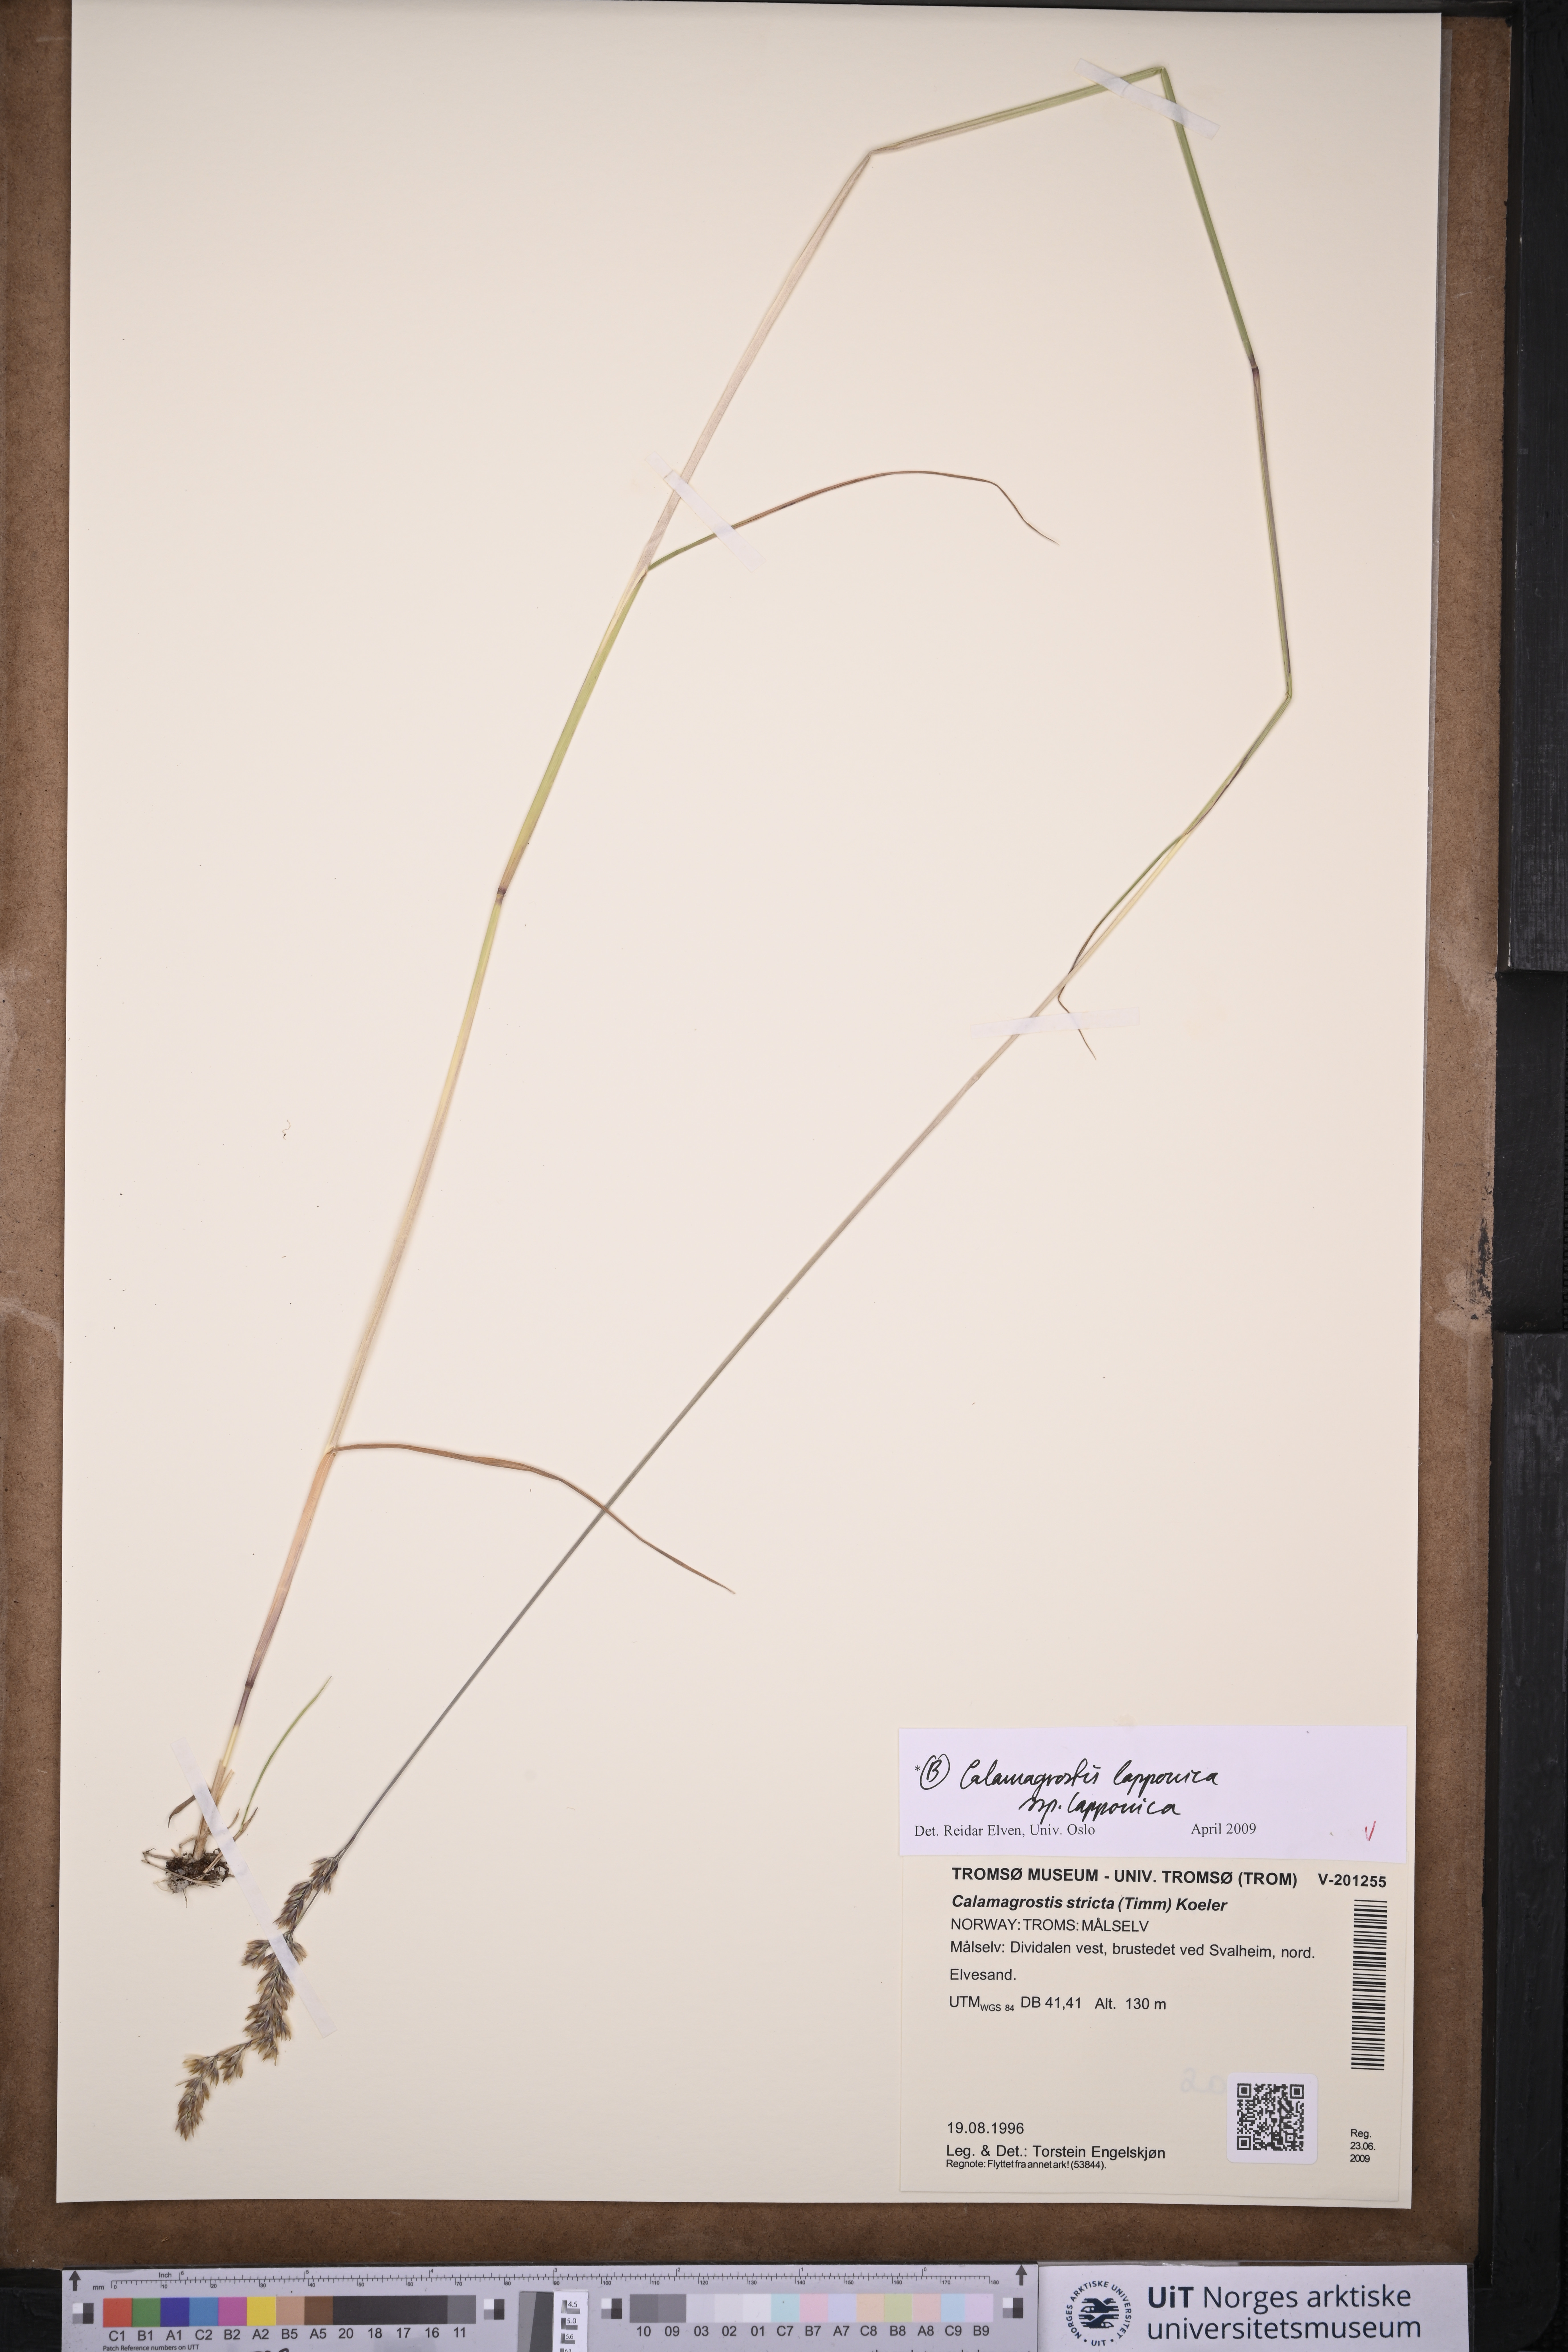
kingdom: Plantae
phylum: Tracheophyta
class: Liliopsida
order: Poales
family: Poaceae
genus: Calamagrostis
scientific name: Calamagrostis lapponica
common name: Lapland reedgrass
